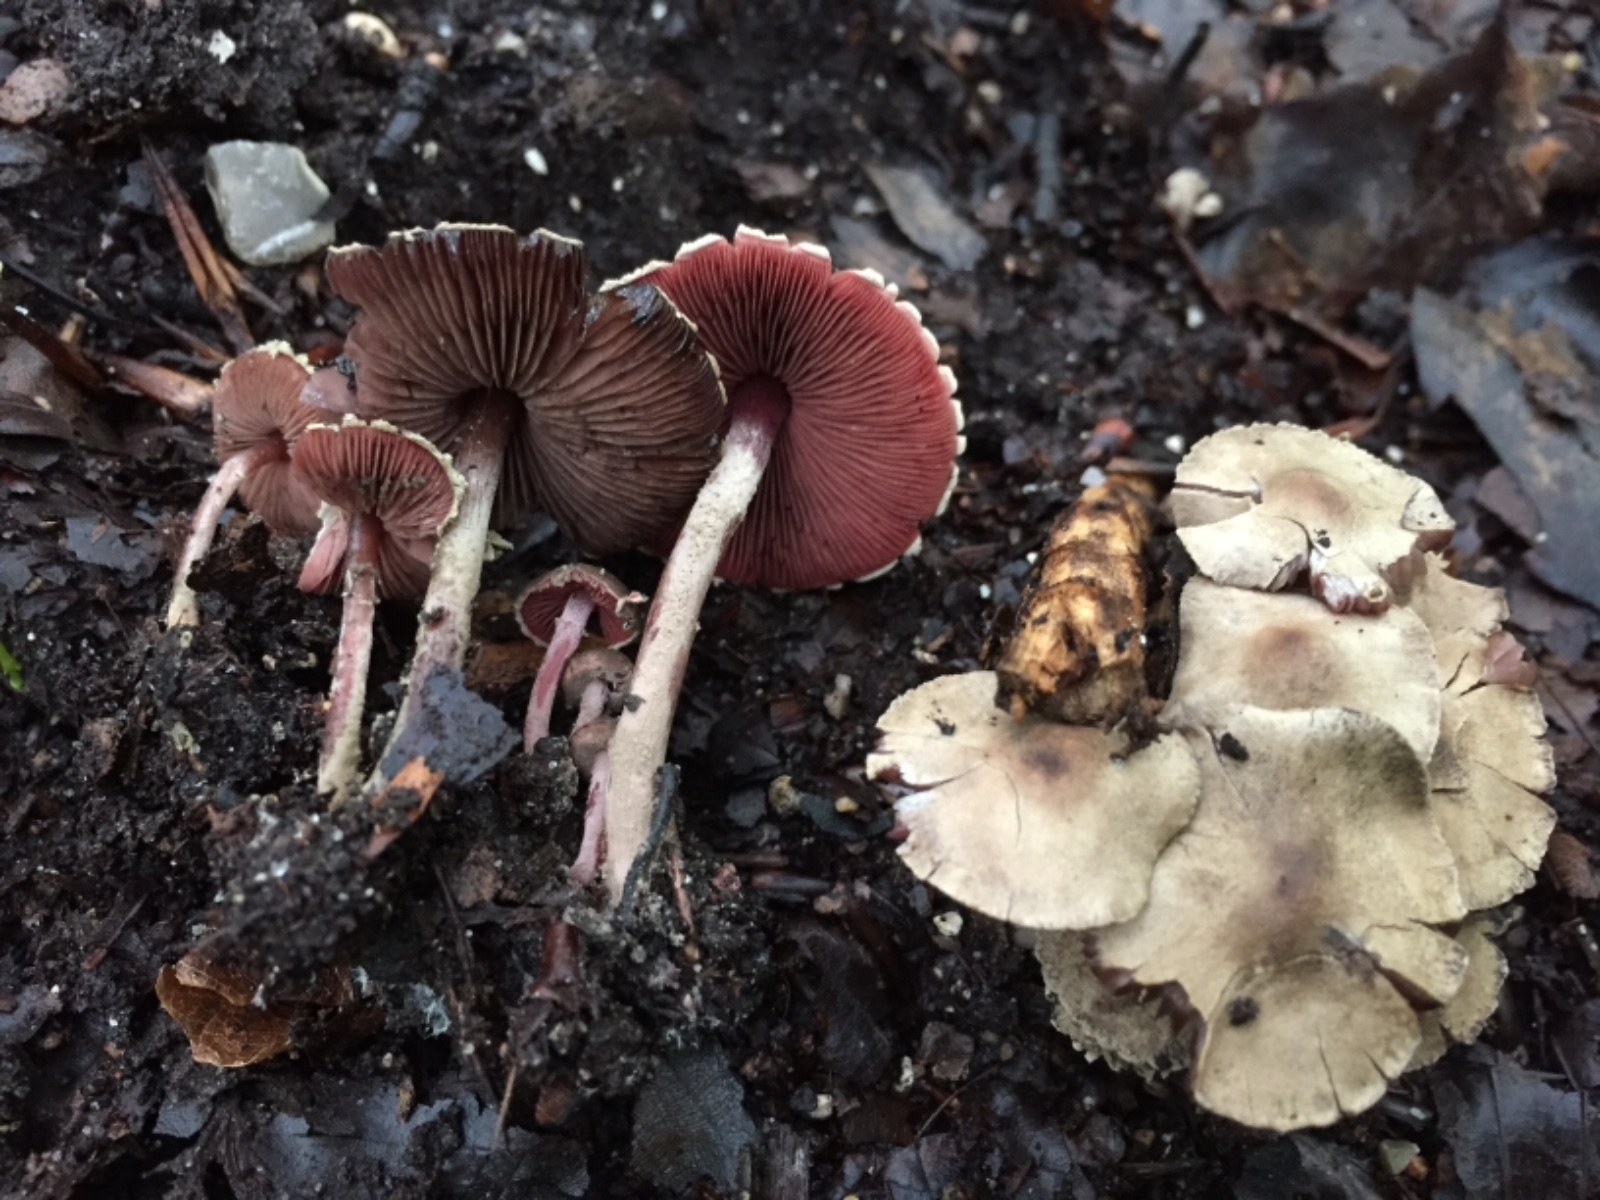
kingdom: Fungi
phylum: Basidiomycota
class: Agaricomycetes
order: Agaricales
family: Agaricaceae
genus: Melanophyllum
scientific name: Melanophyllum haematospermum
